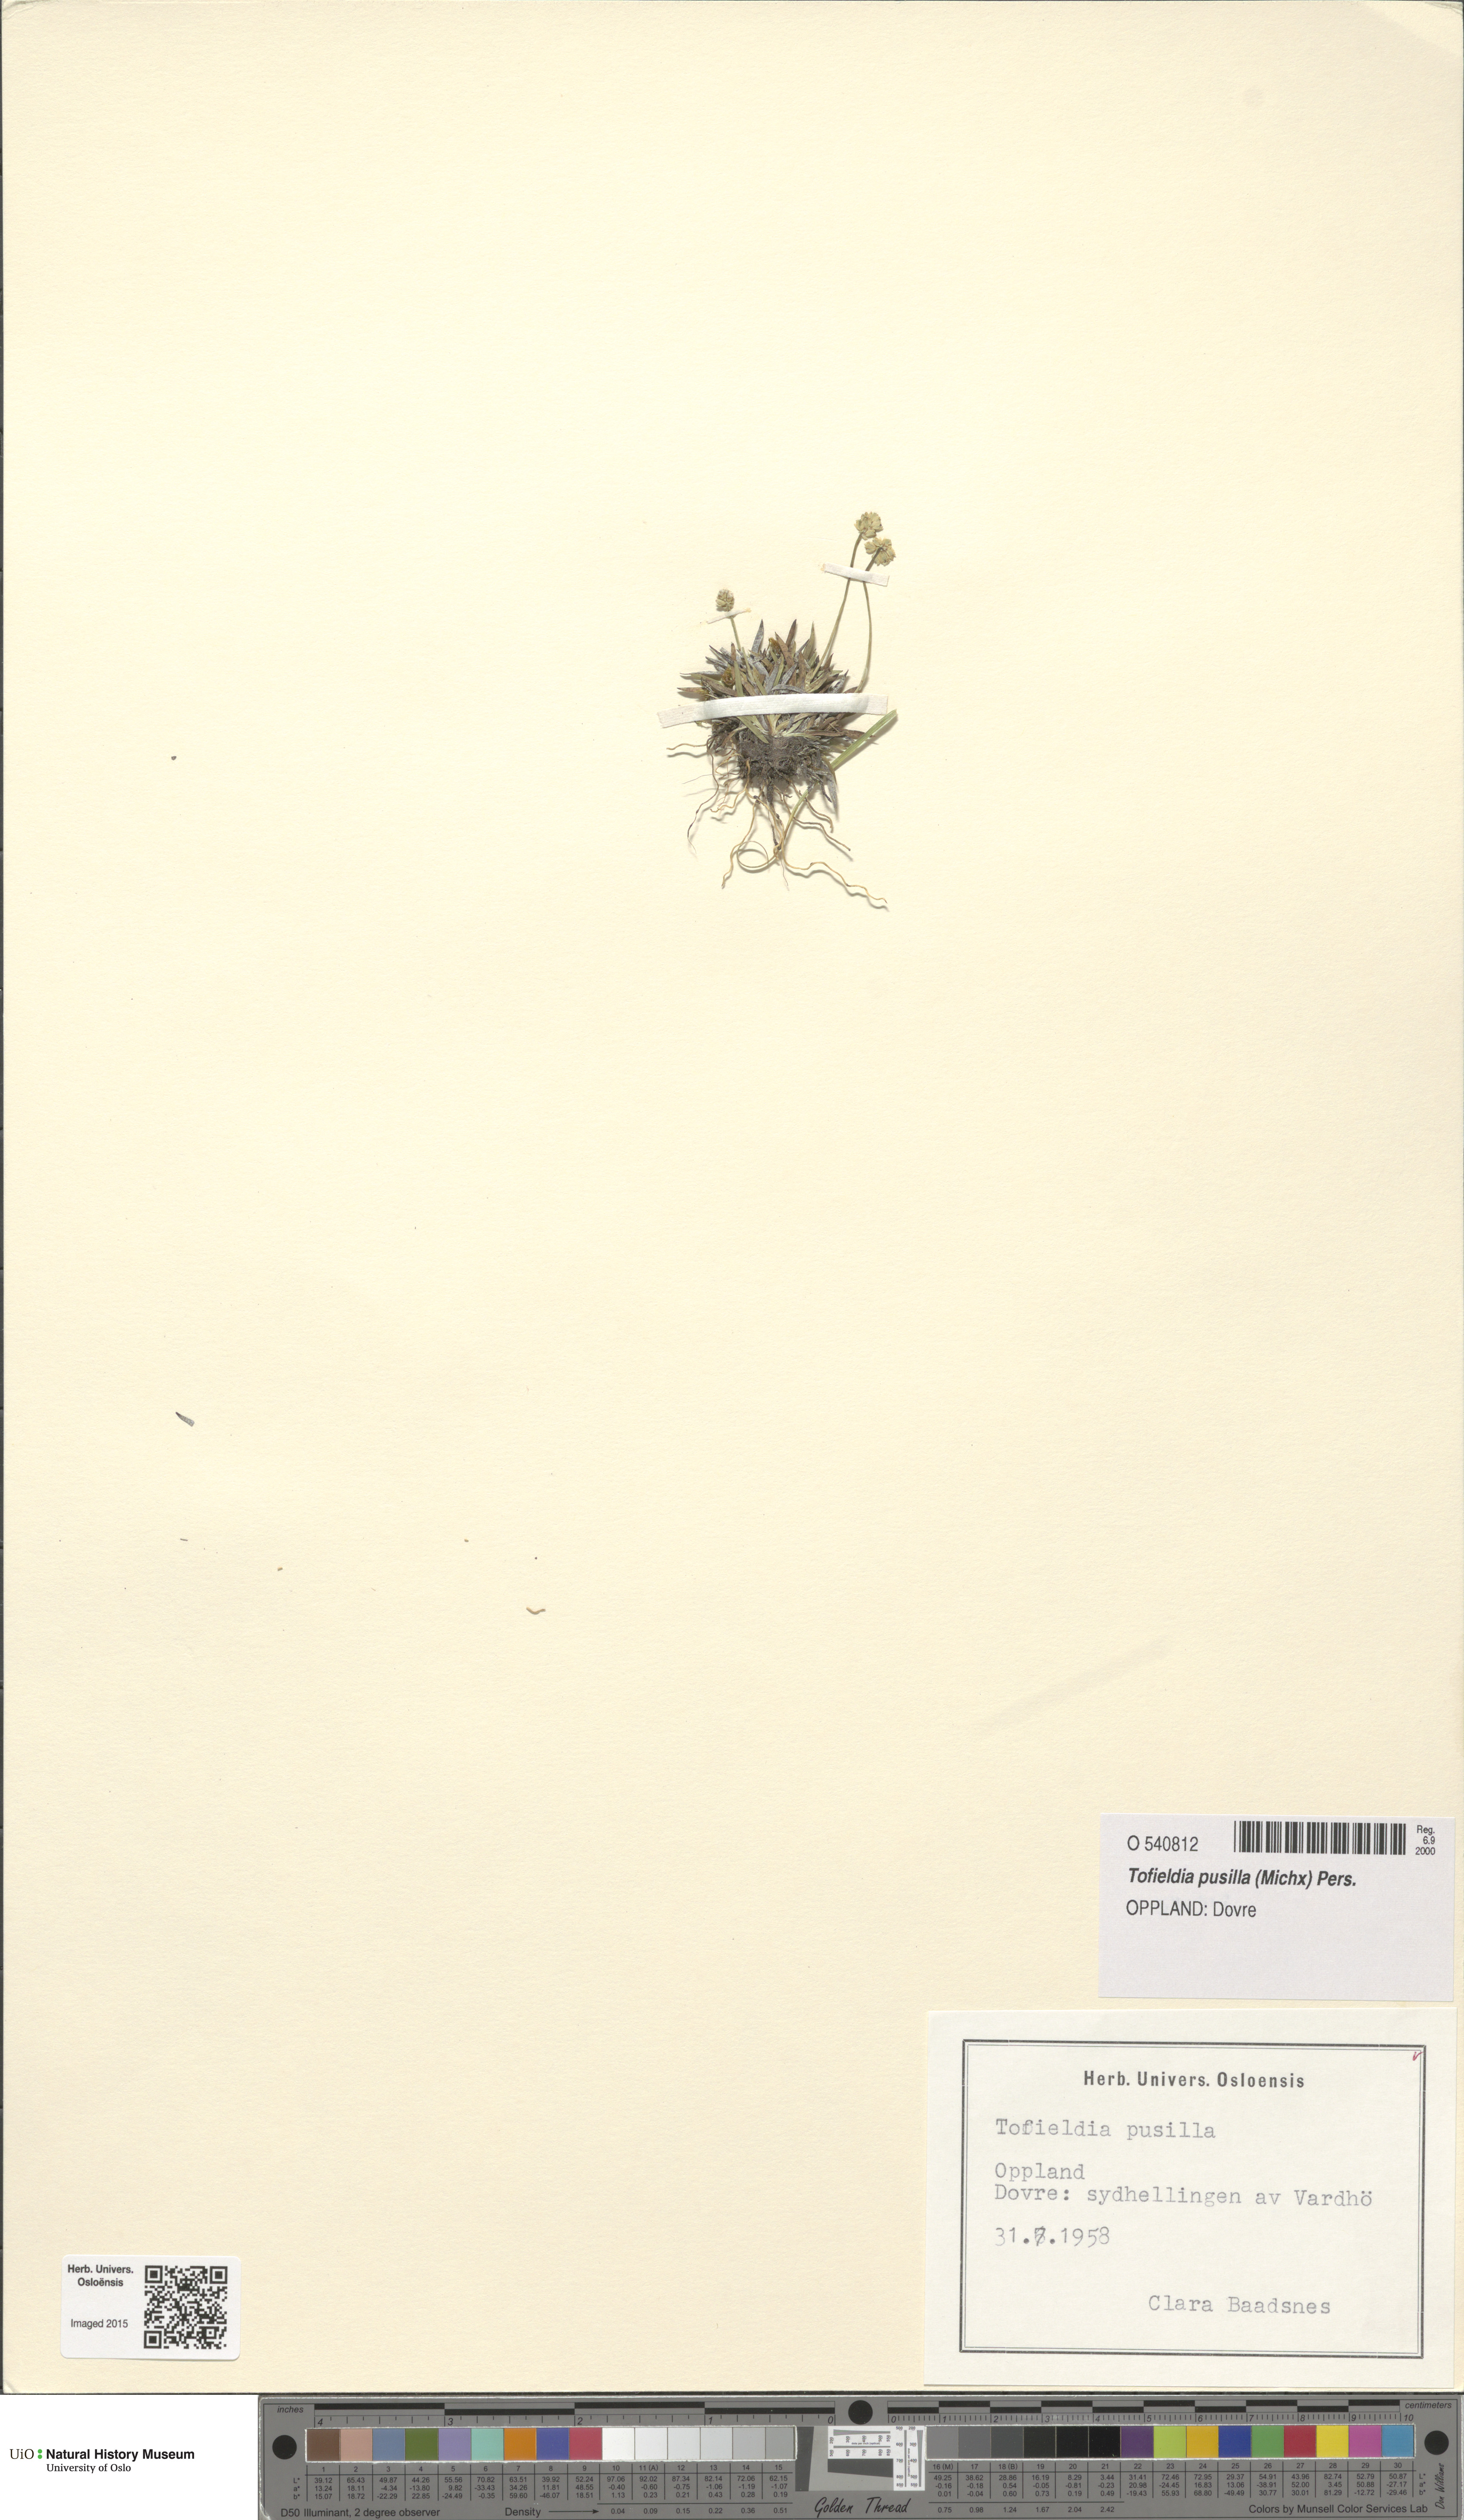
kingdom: Plantae
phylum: Tracheophyta
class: Liliopsida
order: Alismatales
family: Tofieldiaceae
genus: Tofieldia
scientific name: Tofieldia pusilla
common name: Scottish false asphodel
